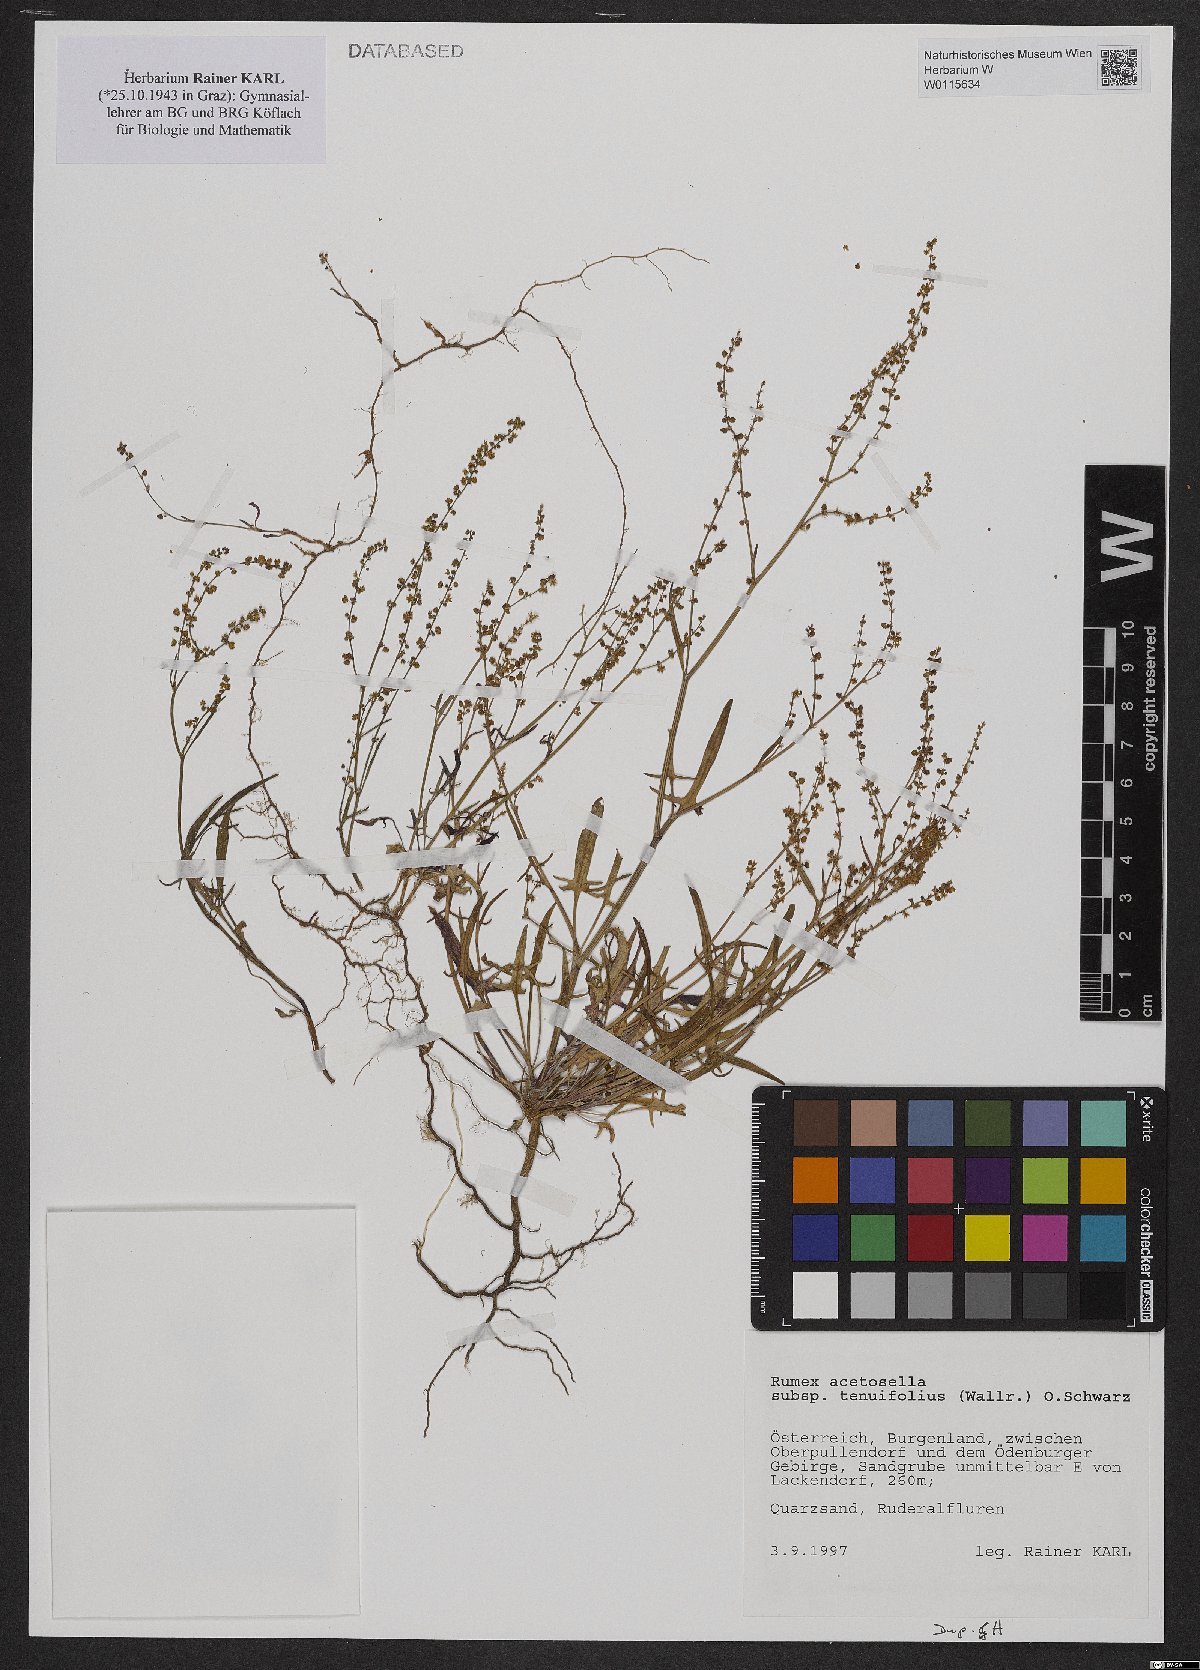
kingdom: Plantae
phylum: Tracheophyta
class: Magnoliopsida
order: Caryophyllales
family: Polygonaceae
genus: Rumex
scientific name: Rumex acetosella
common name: Common sheep sorrel
